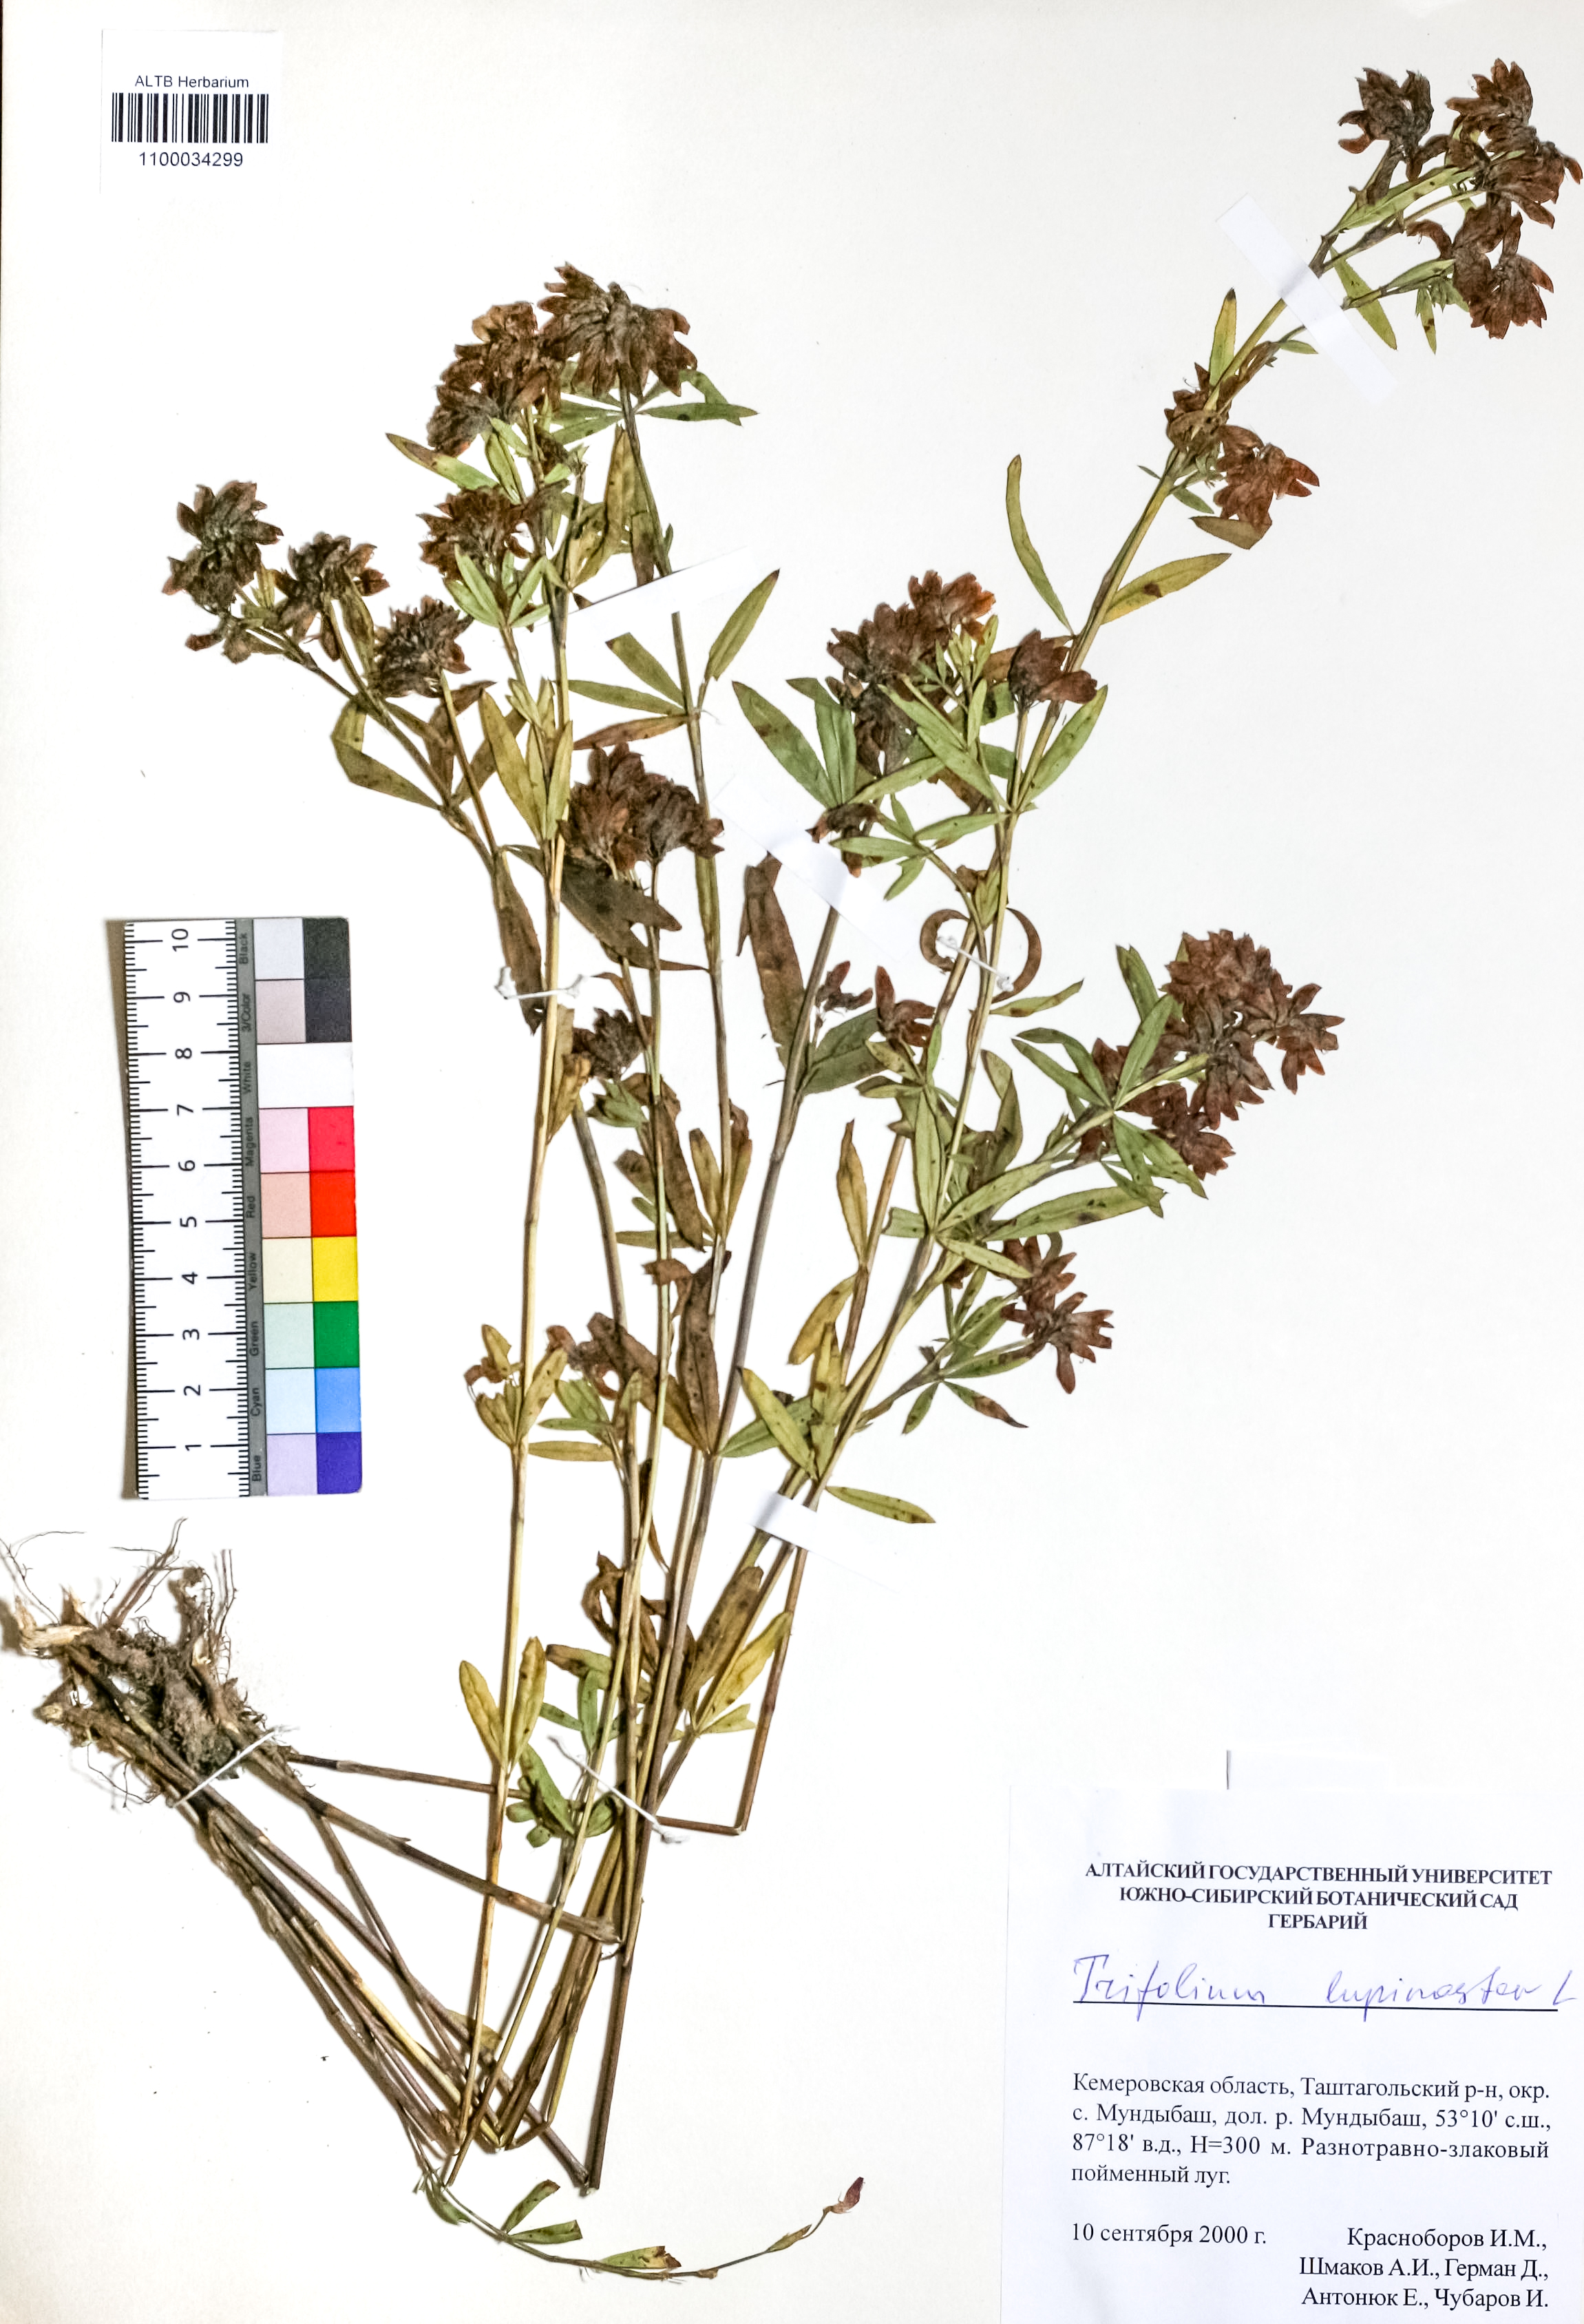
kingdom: Plantae
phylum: Tracheophyta
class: Magnoliopsida
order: Fabales
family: Fabaceae
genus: Trifolium
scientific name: Trifolium lupinaster
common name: Lupine clover
